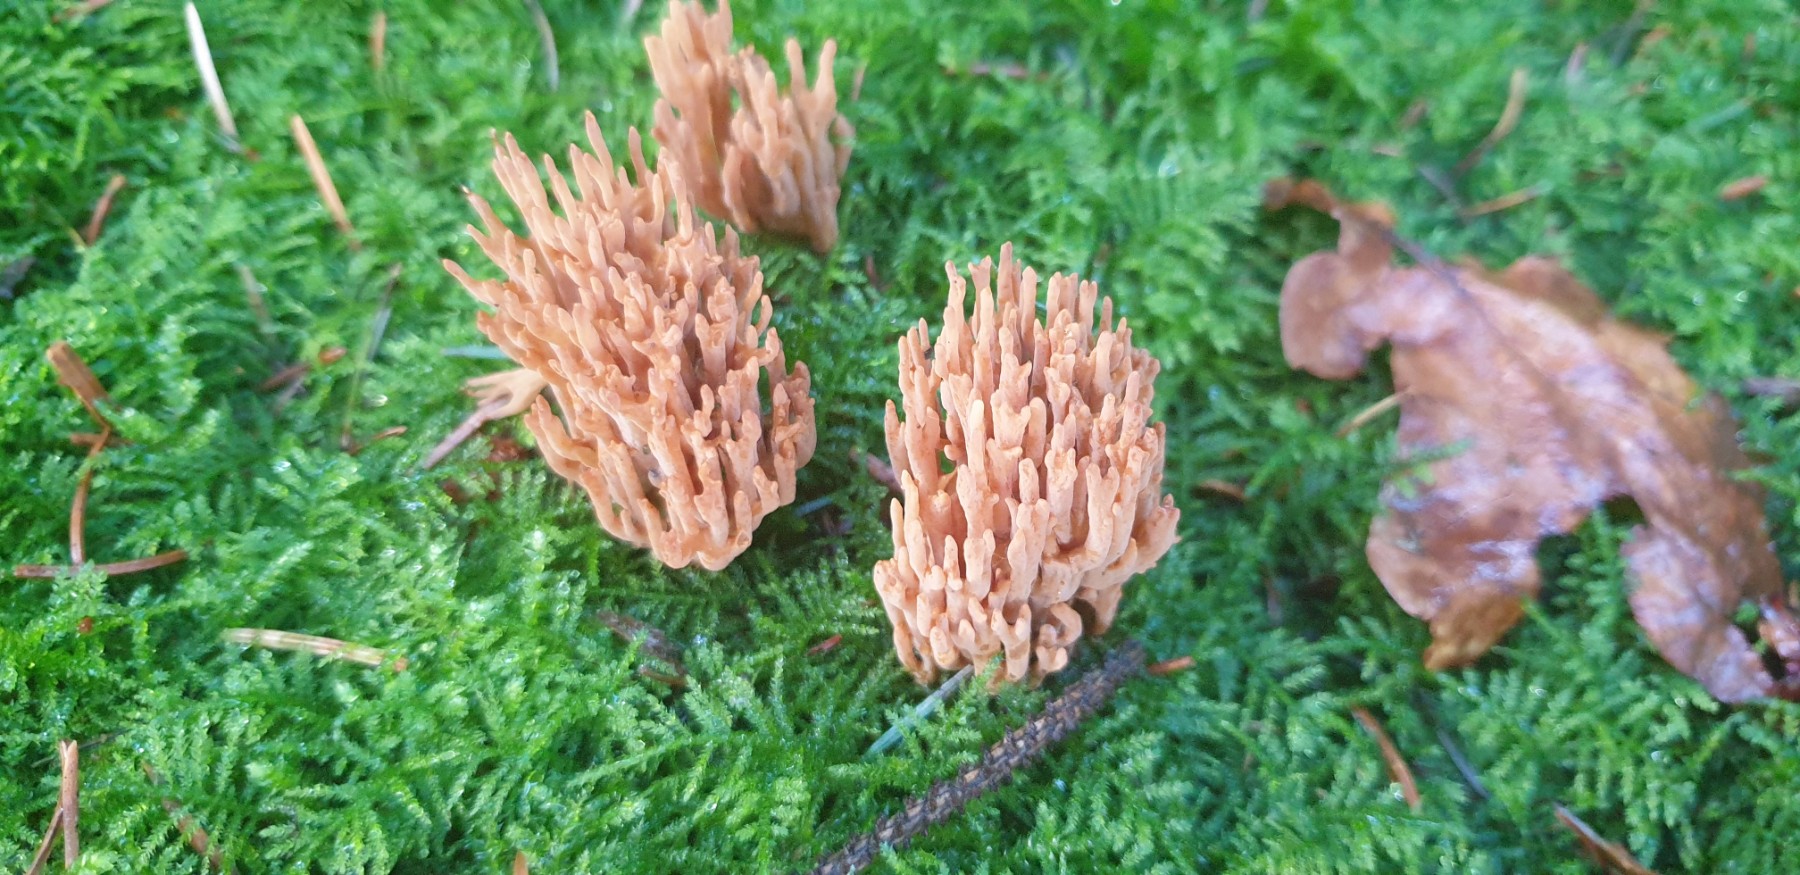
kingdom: Fungi
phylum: Basidiomycota
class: Agaricomycetes
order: Gomphales
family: Gomphaceae
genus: Phaeoclavulina
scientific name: Phaeoclavulina eumorpha
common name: gran-koralsvamp
